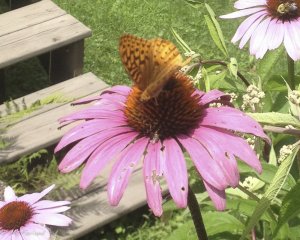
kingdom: Animalia
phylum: Arthropoda
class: Insecta
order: Lepidoptera
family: Nymphalidae
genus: Speyeria
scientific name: Speyeria cybele
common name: Great Spangled Fritillary
